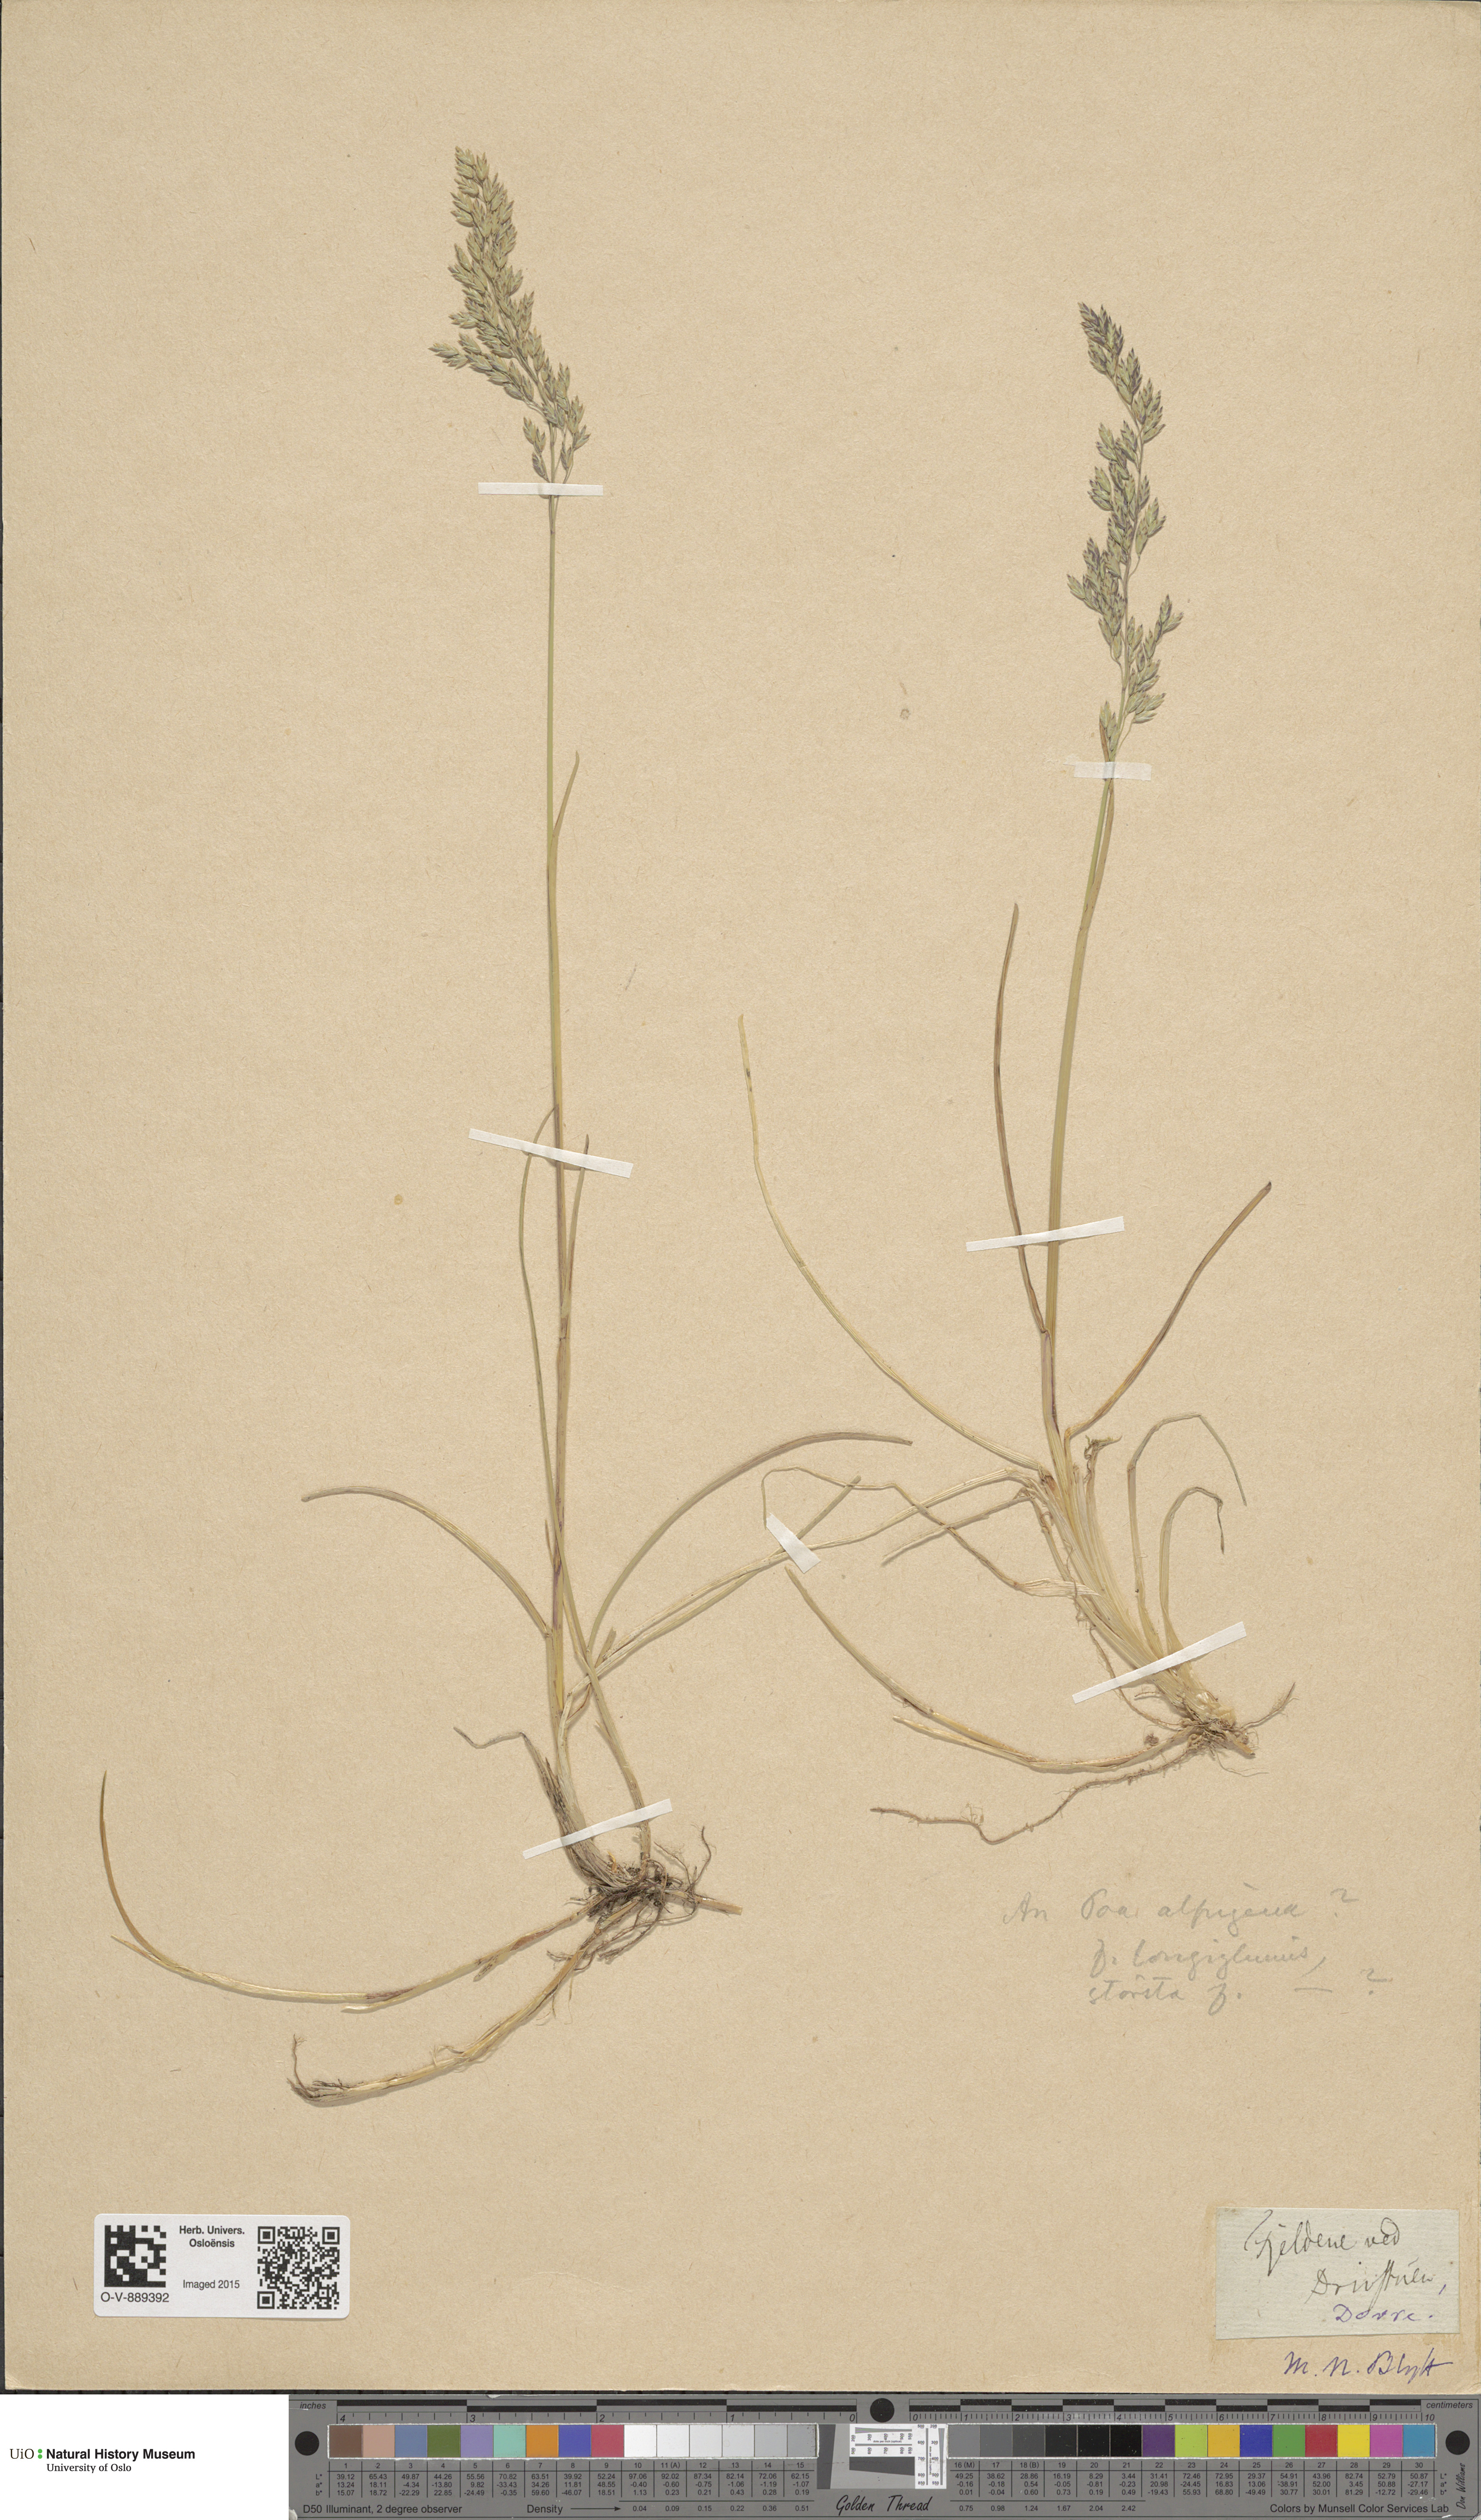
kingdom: Plantae
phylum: Tracheophyta
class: Liliopsida
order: Poales
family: Poaceae
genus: Poa
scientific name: Poa alpigena
